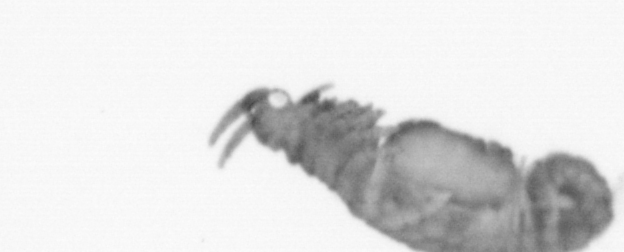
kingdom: Animalia
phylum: Annelida
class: Polychaeta
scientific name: Polychaeta
